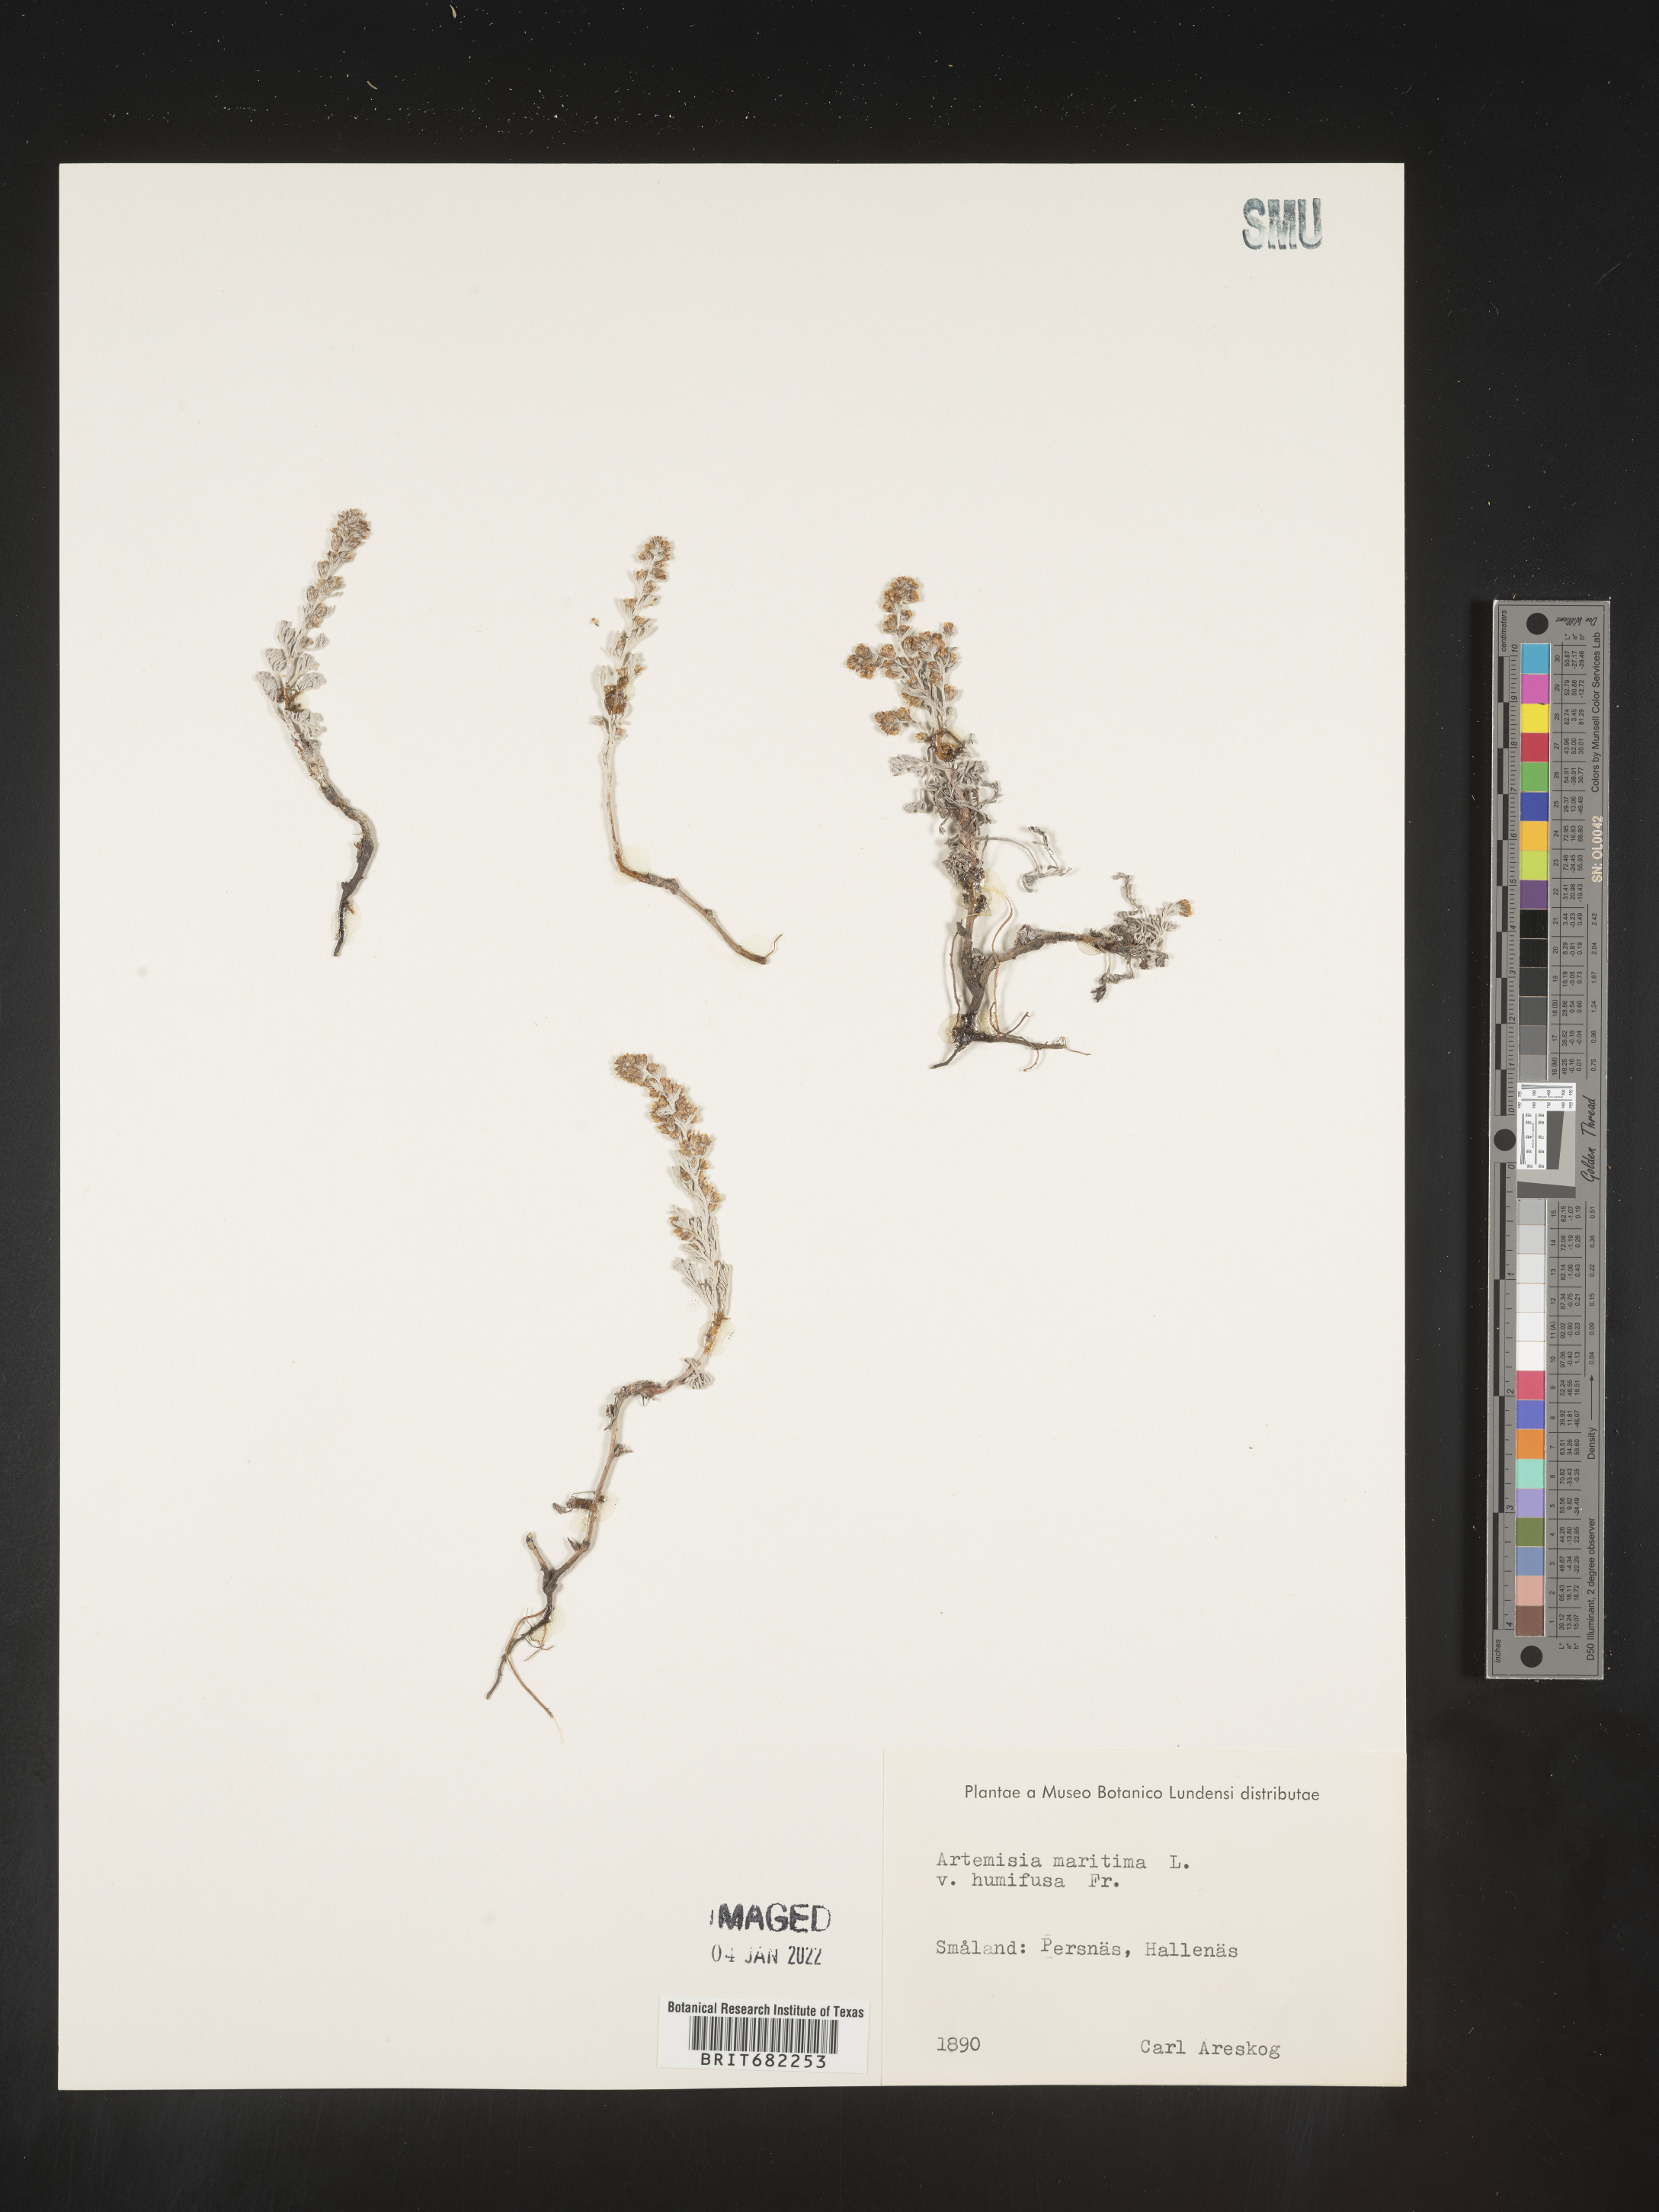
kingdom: Plantae
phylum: Tracheophyta
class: Magnoliopsida
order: Asterales
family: Asteraceae
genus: Artemisia
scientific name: Artemisia
